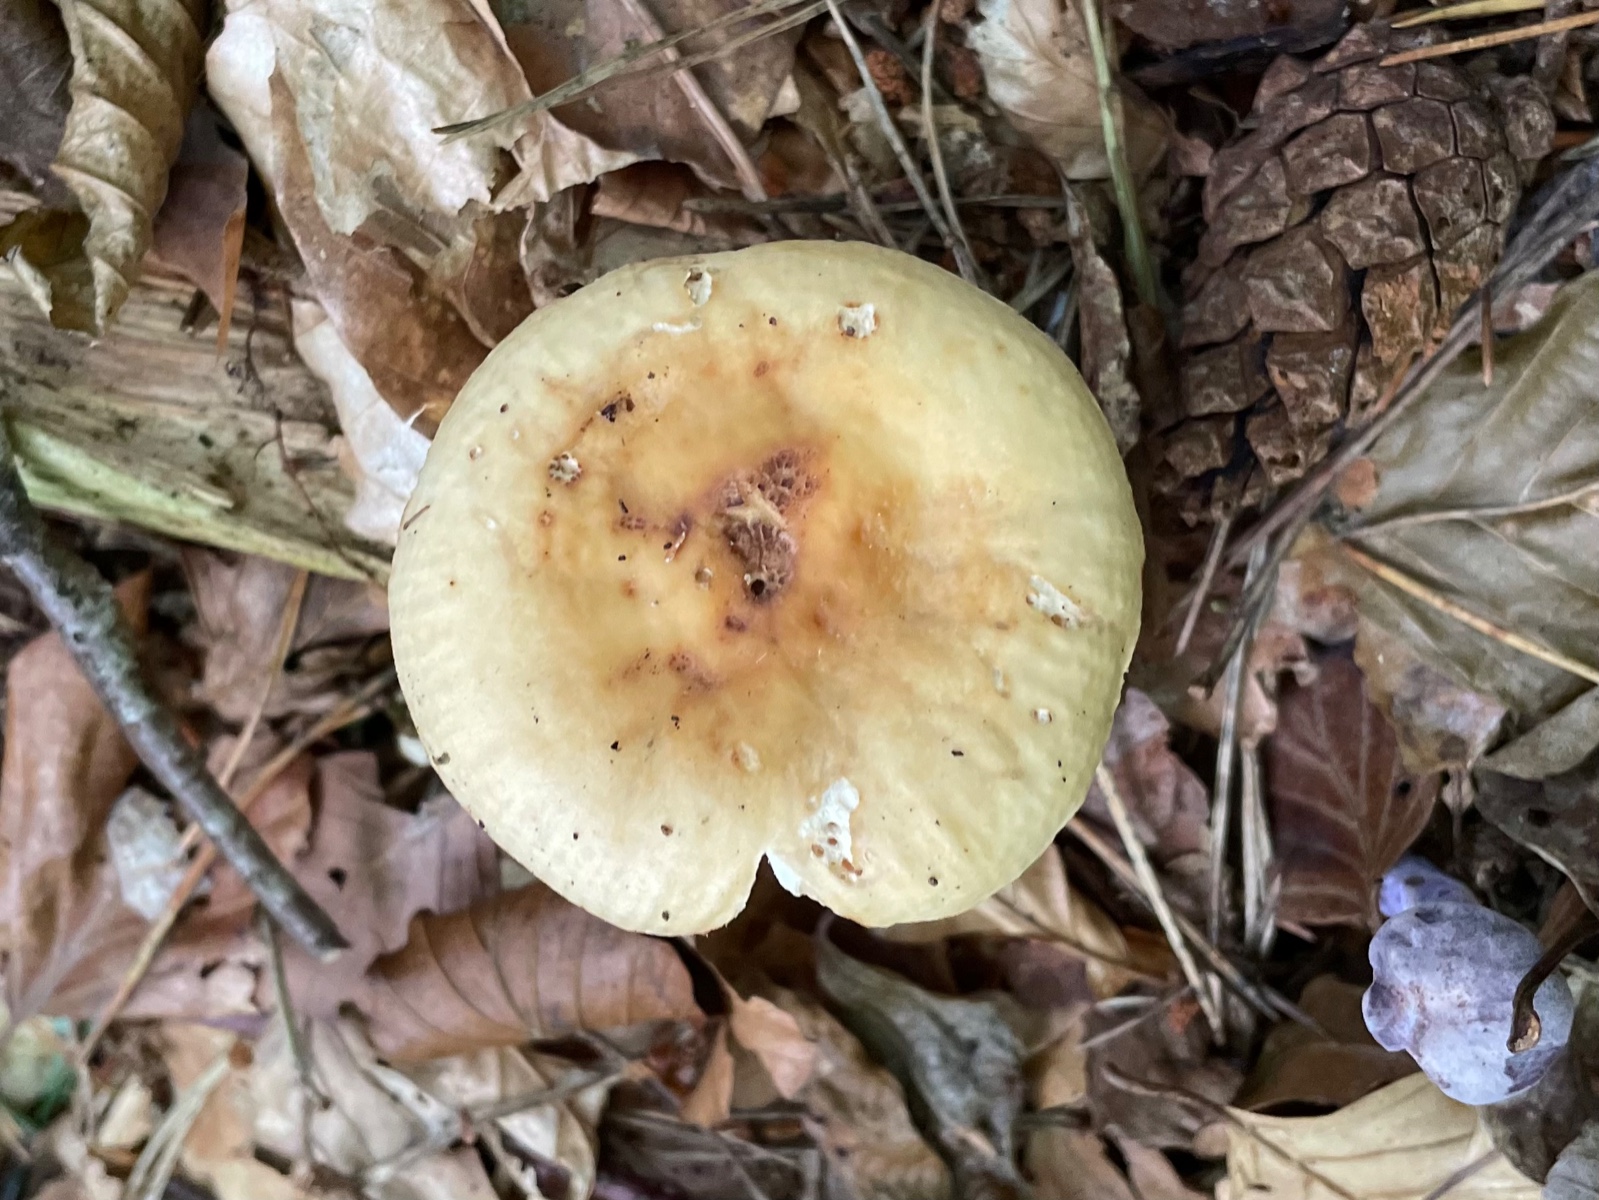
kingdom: Fungi
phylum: Basidiomycota
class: Agaricomycetes
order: Russulales
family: Russulaceae
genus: Russula
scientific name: Russula fellea
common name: galde-skørhat
